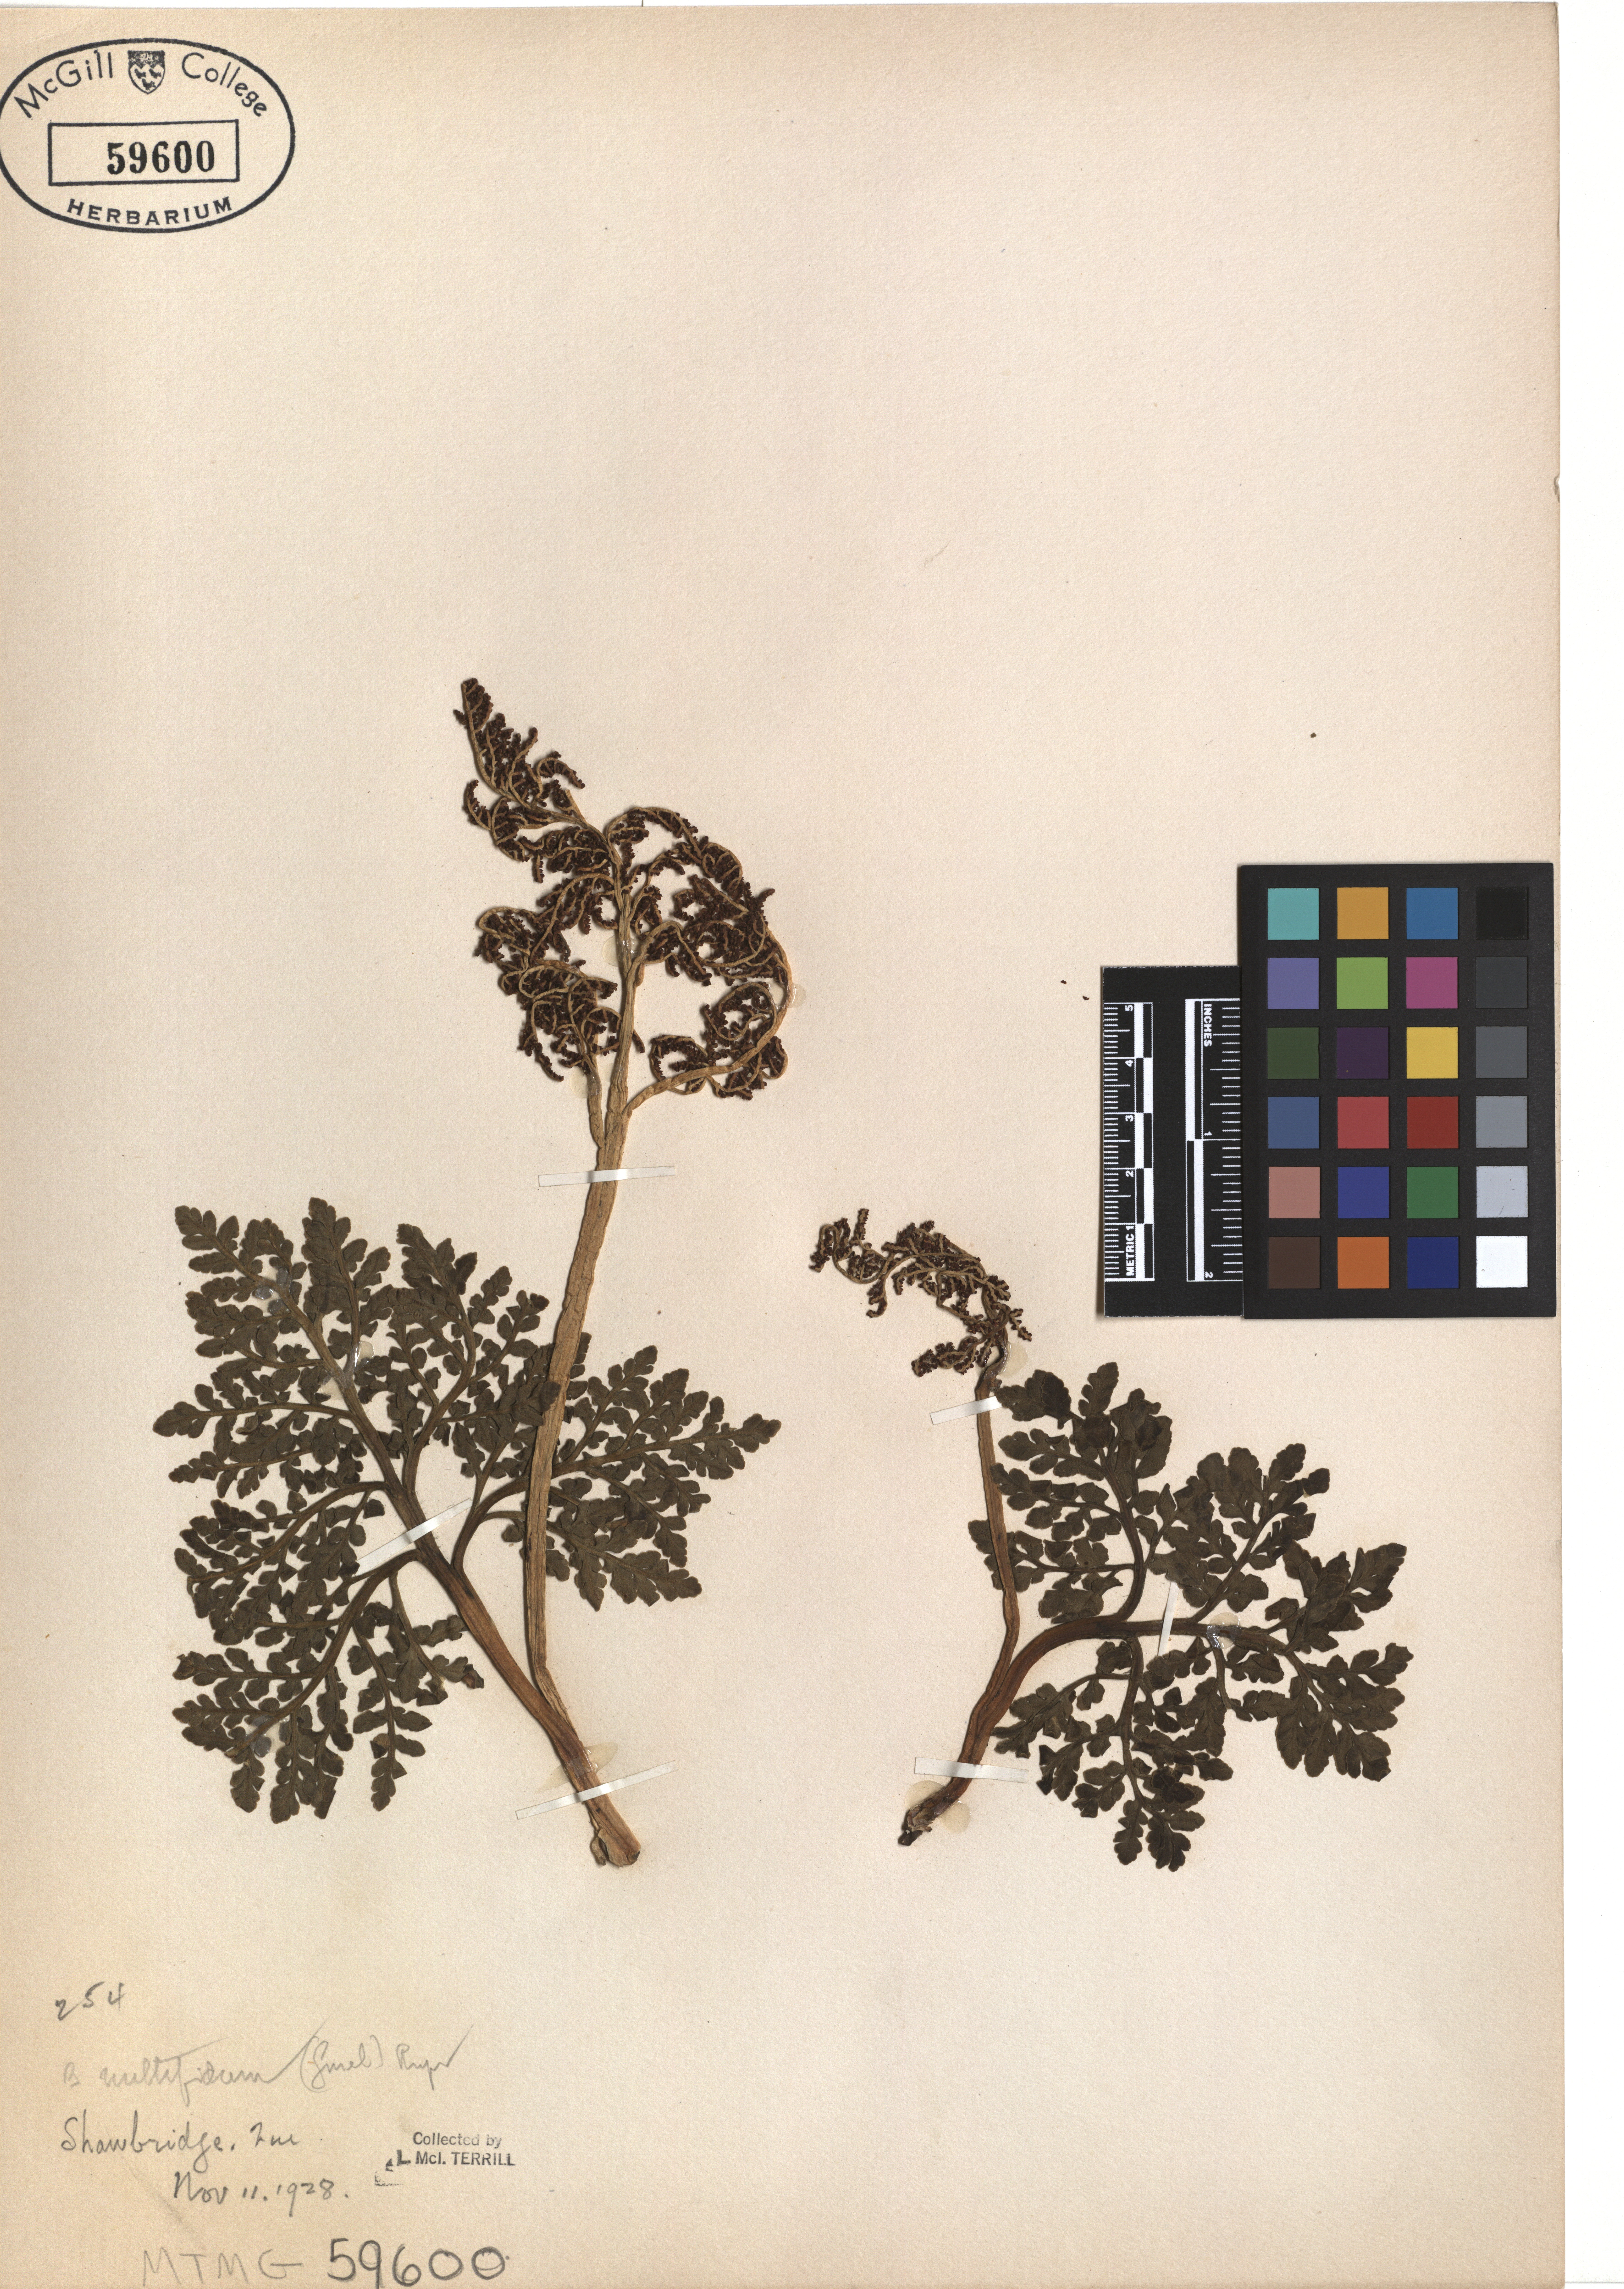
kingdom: Plantae
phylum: Tracheophyta
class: Polypodiopsida
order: Ophioglossales
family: Ophioglossaceae
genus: Sceptridium
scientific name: Sceptridium multifidum
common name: Leathery grape fern
